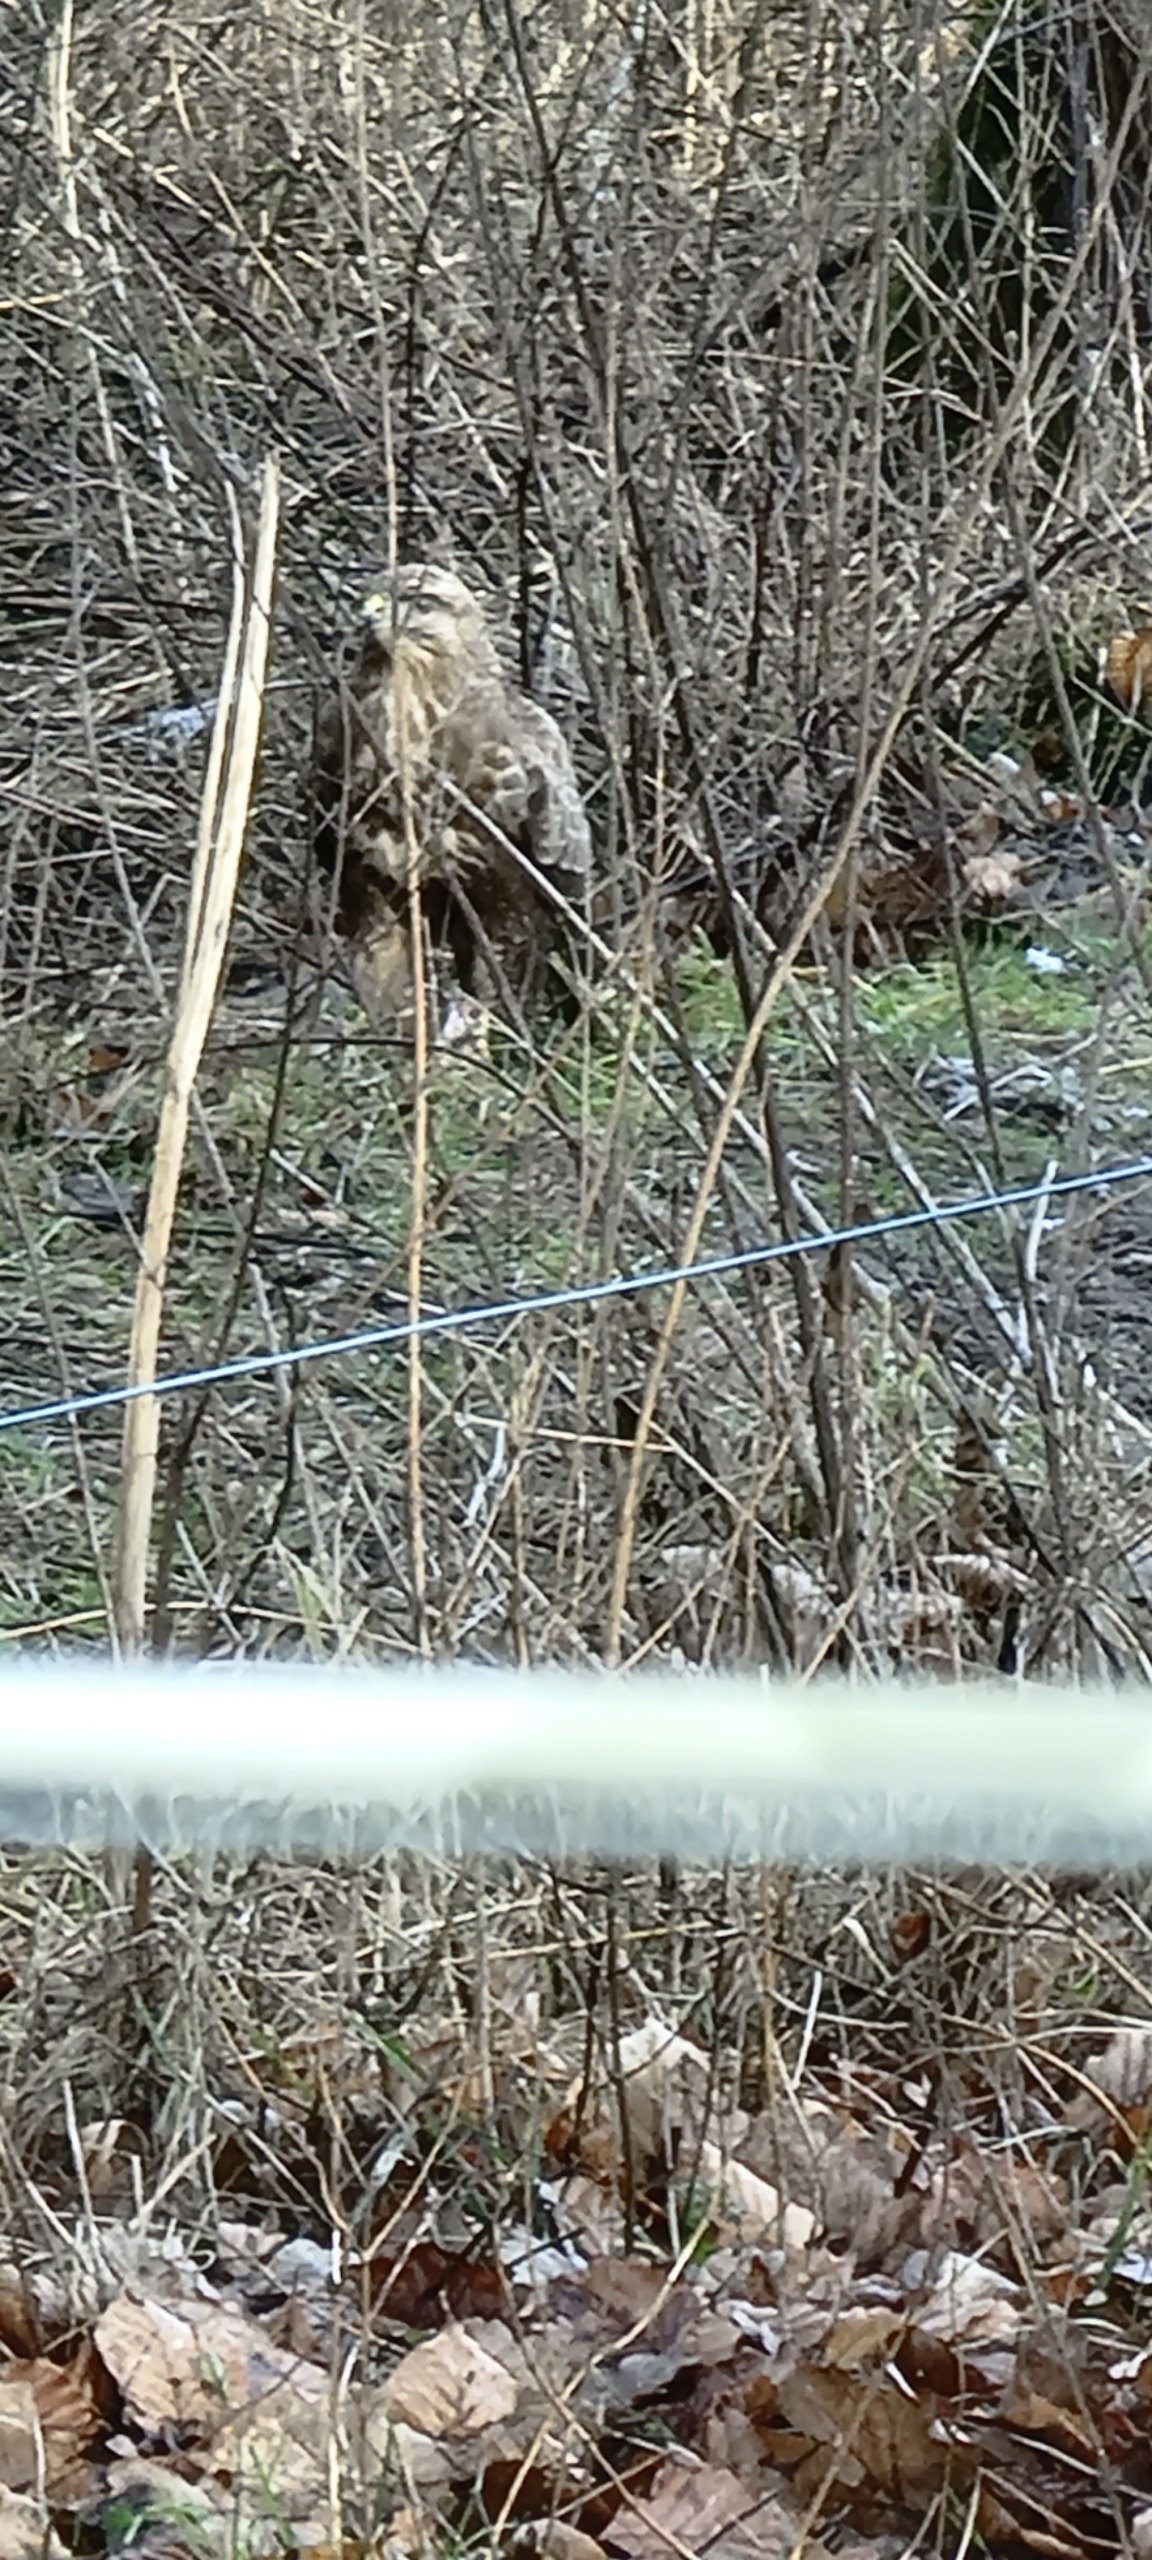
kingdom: Animalia
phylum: Chordata
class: Aves
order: Accipitriformes
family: Accipitridae
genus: Buteo
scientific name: Buteo buteo
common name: Musvåge
